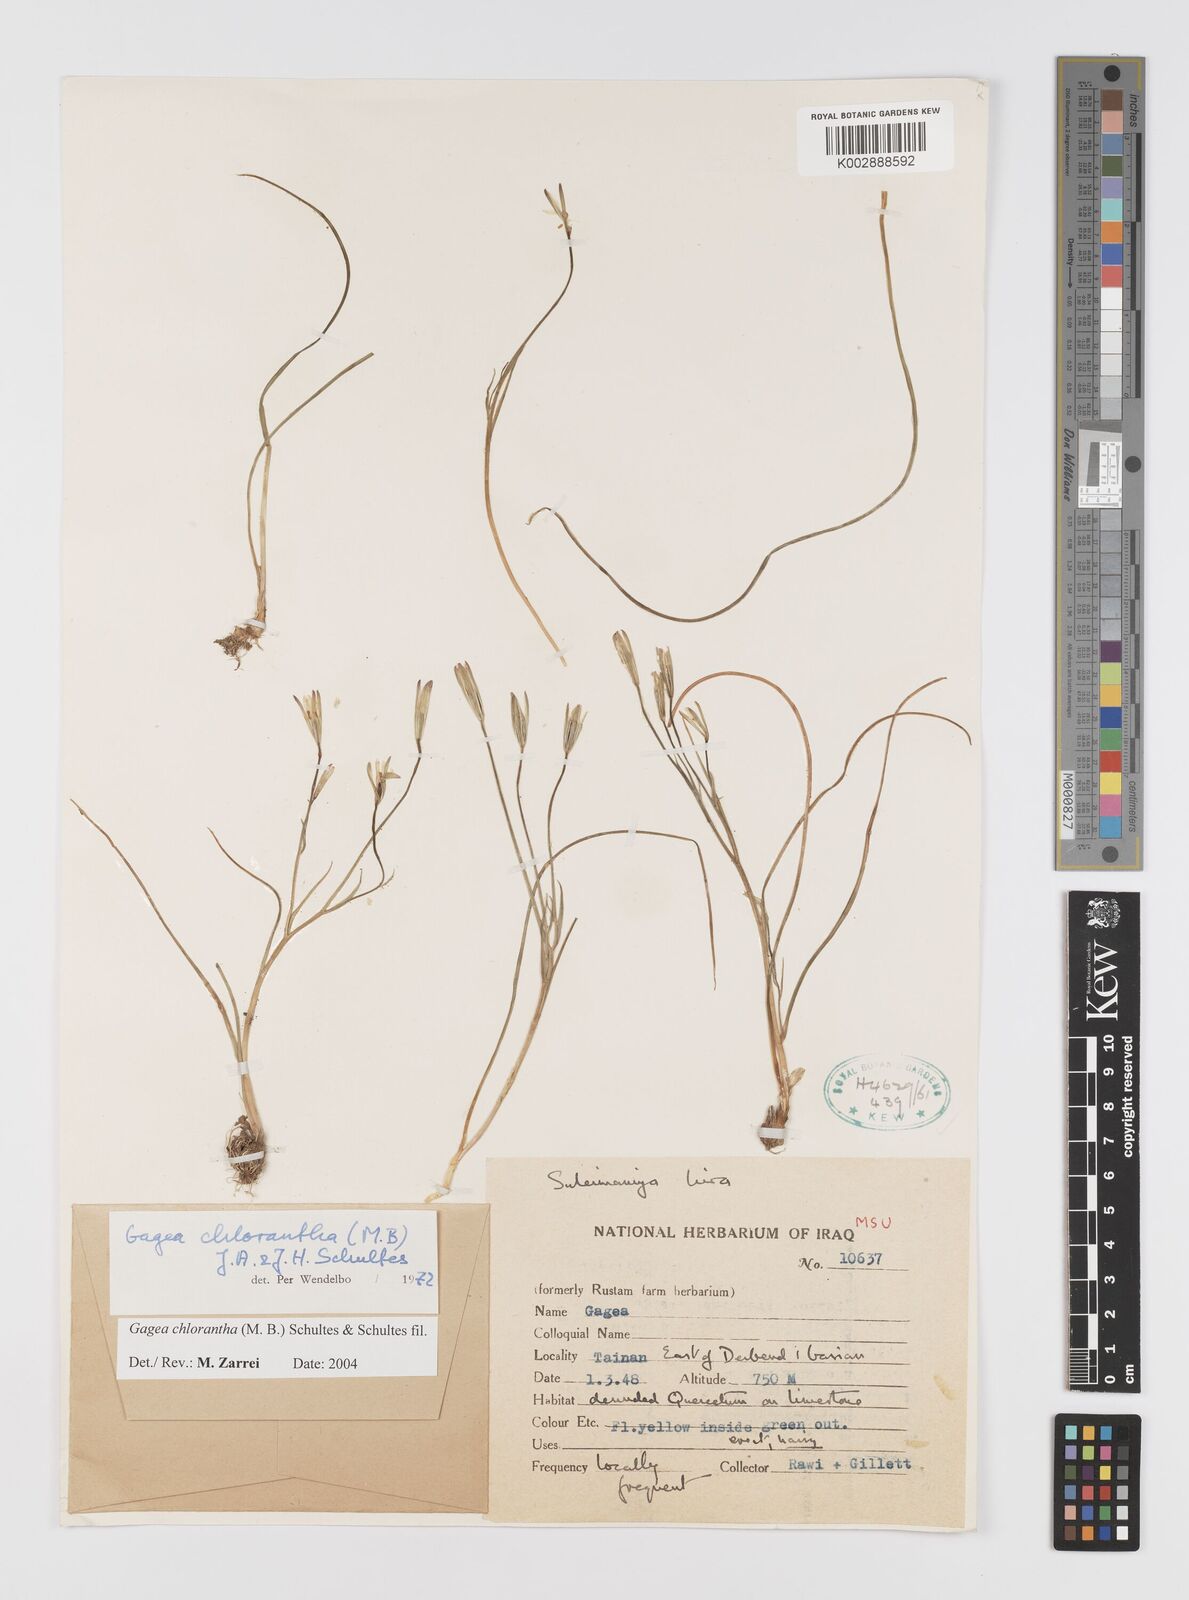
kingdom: Plantae
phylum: Tracheophyta
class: Liliopsida
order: Liliales
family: Liliaceae
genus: Gagea
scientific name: Gagea chlorantha
